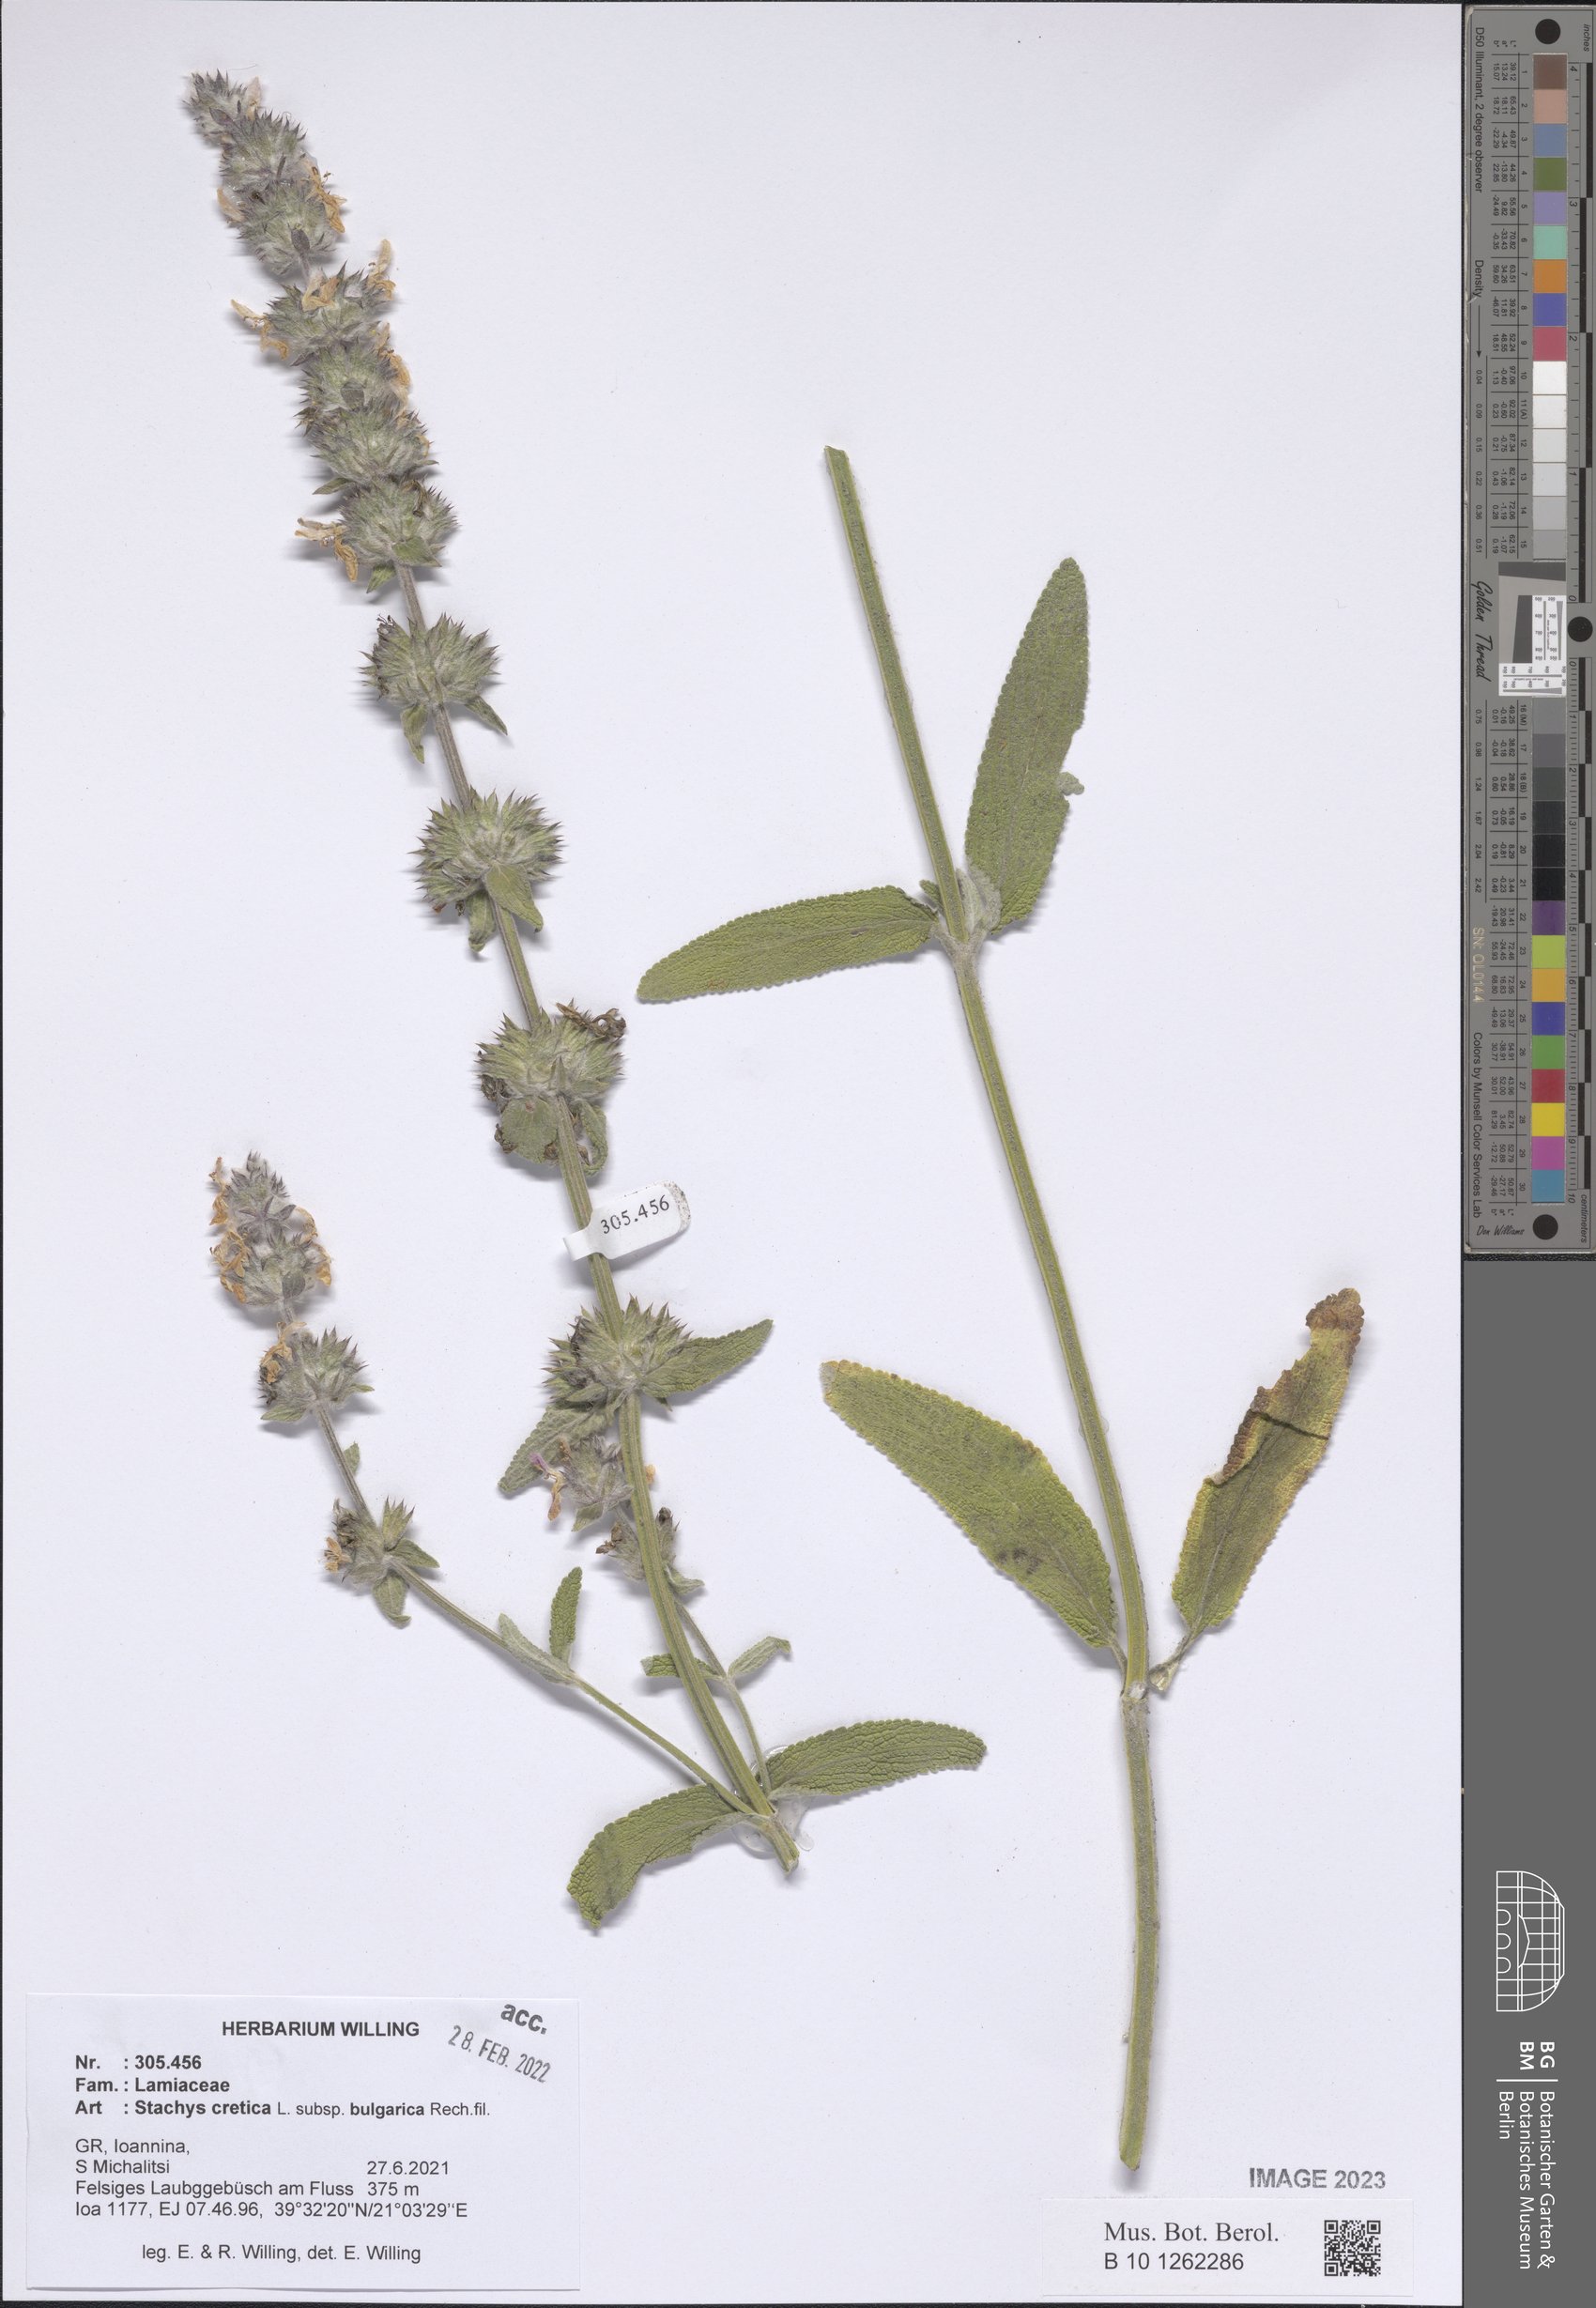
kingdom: Plantae
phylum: Tracheophyta
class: Magnoliopsida
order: Lamiales
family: Lamiaceae
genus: Stachys
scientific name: Stachys cretica
